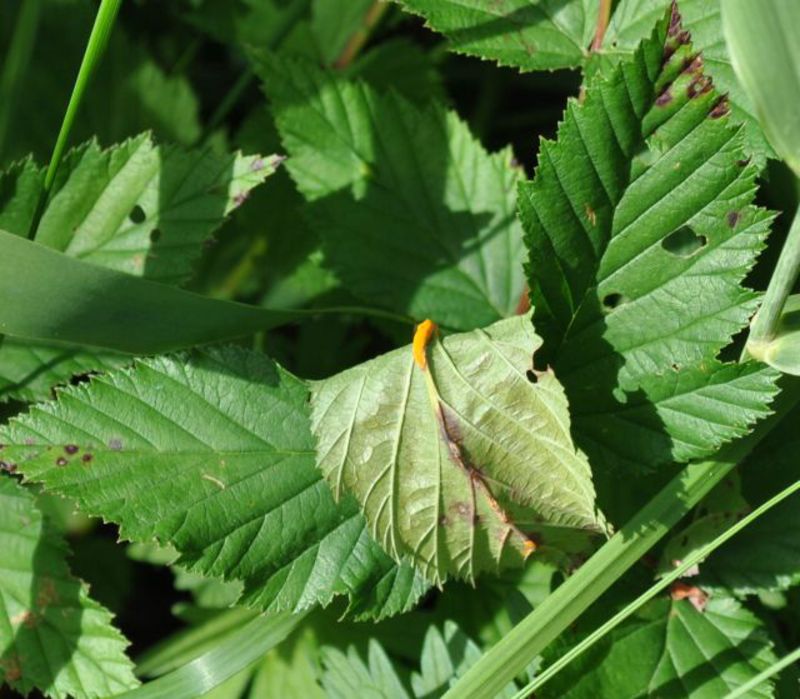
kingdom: Fungi
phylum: Basidiomycota
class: Pucciniomycetes
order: Pucciniales
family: Raveneliaceae
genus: Triphragmium
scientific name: Triphragmium ulmariae
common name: Meadowsweet rust
